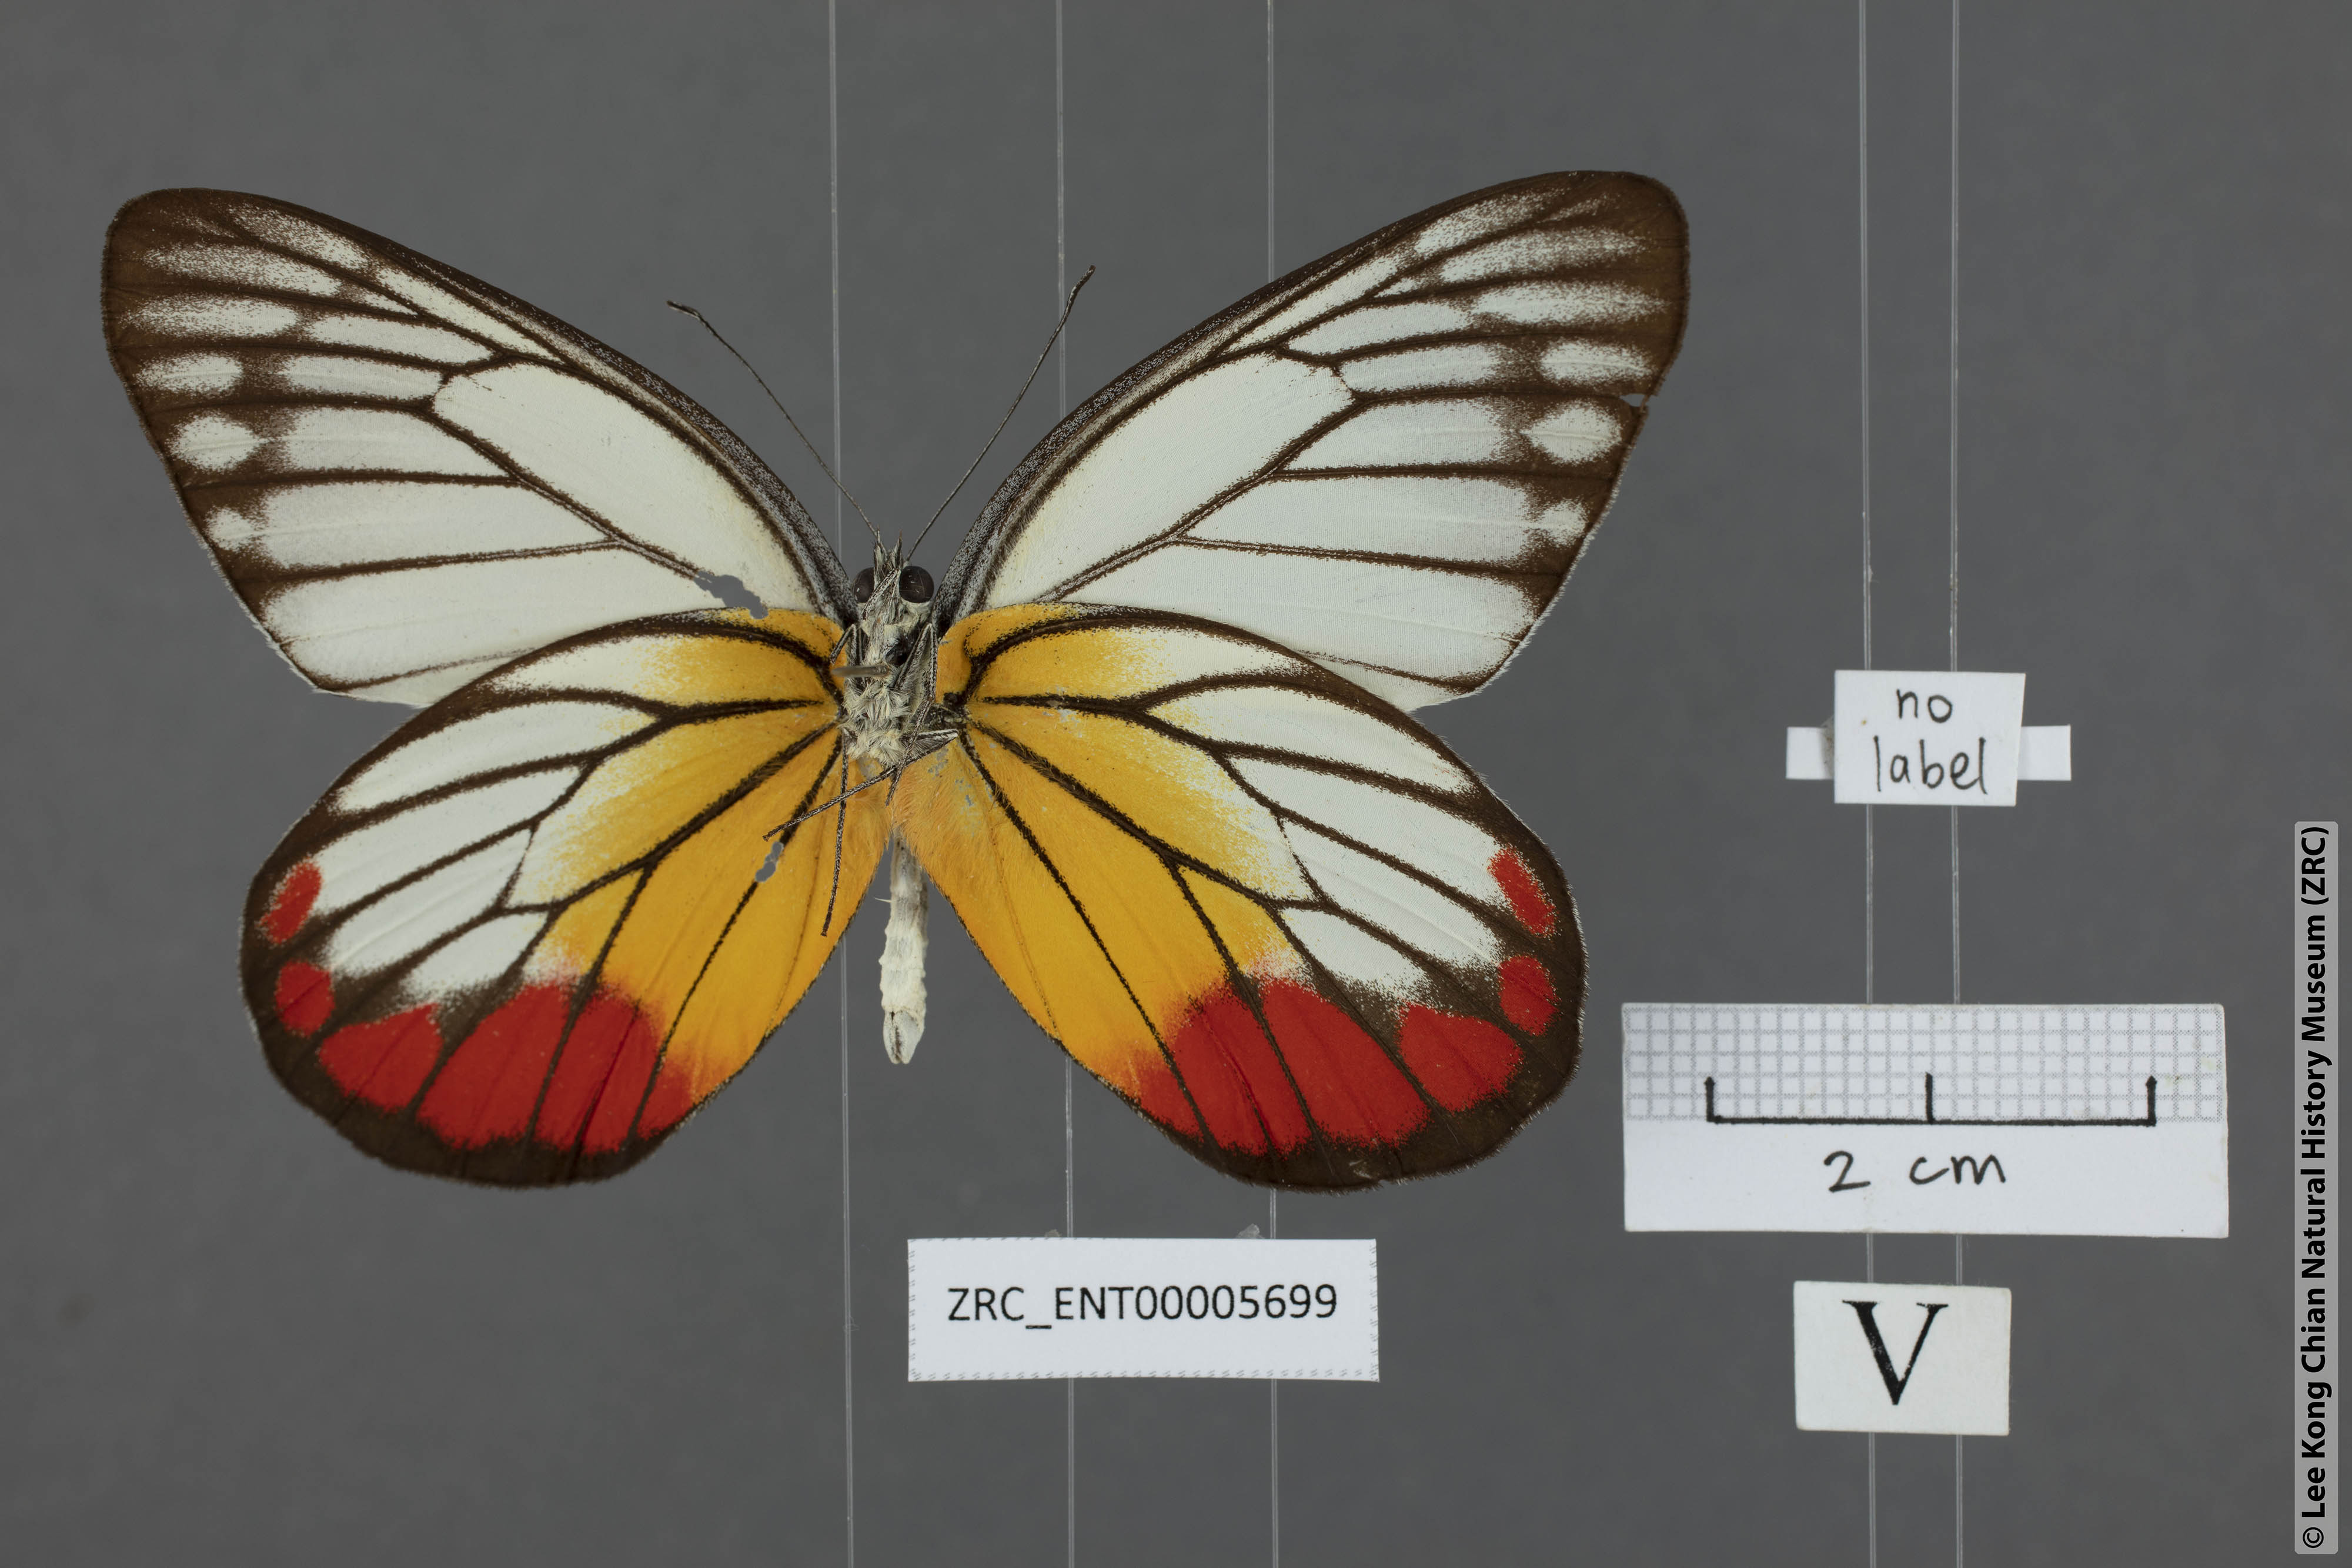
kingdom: Animalia
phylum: Arthropoda
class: Insecta
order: Lepidoptera
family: Pieridae
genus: Delias
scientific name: Delias hyparete
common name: Painted jezebel
